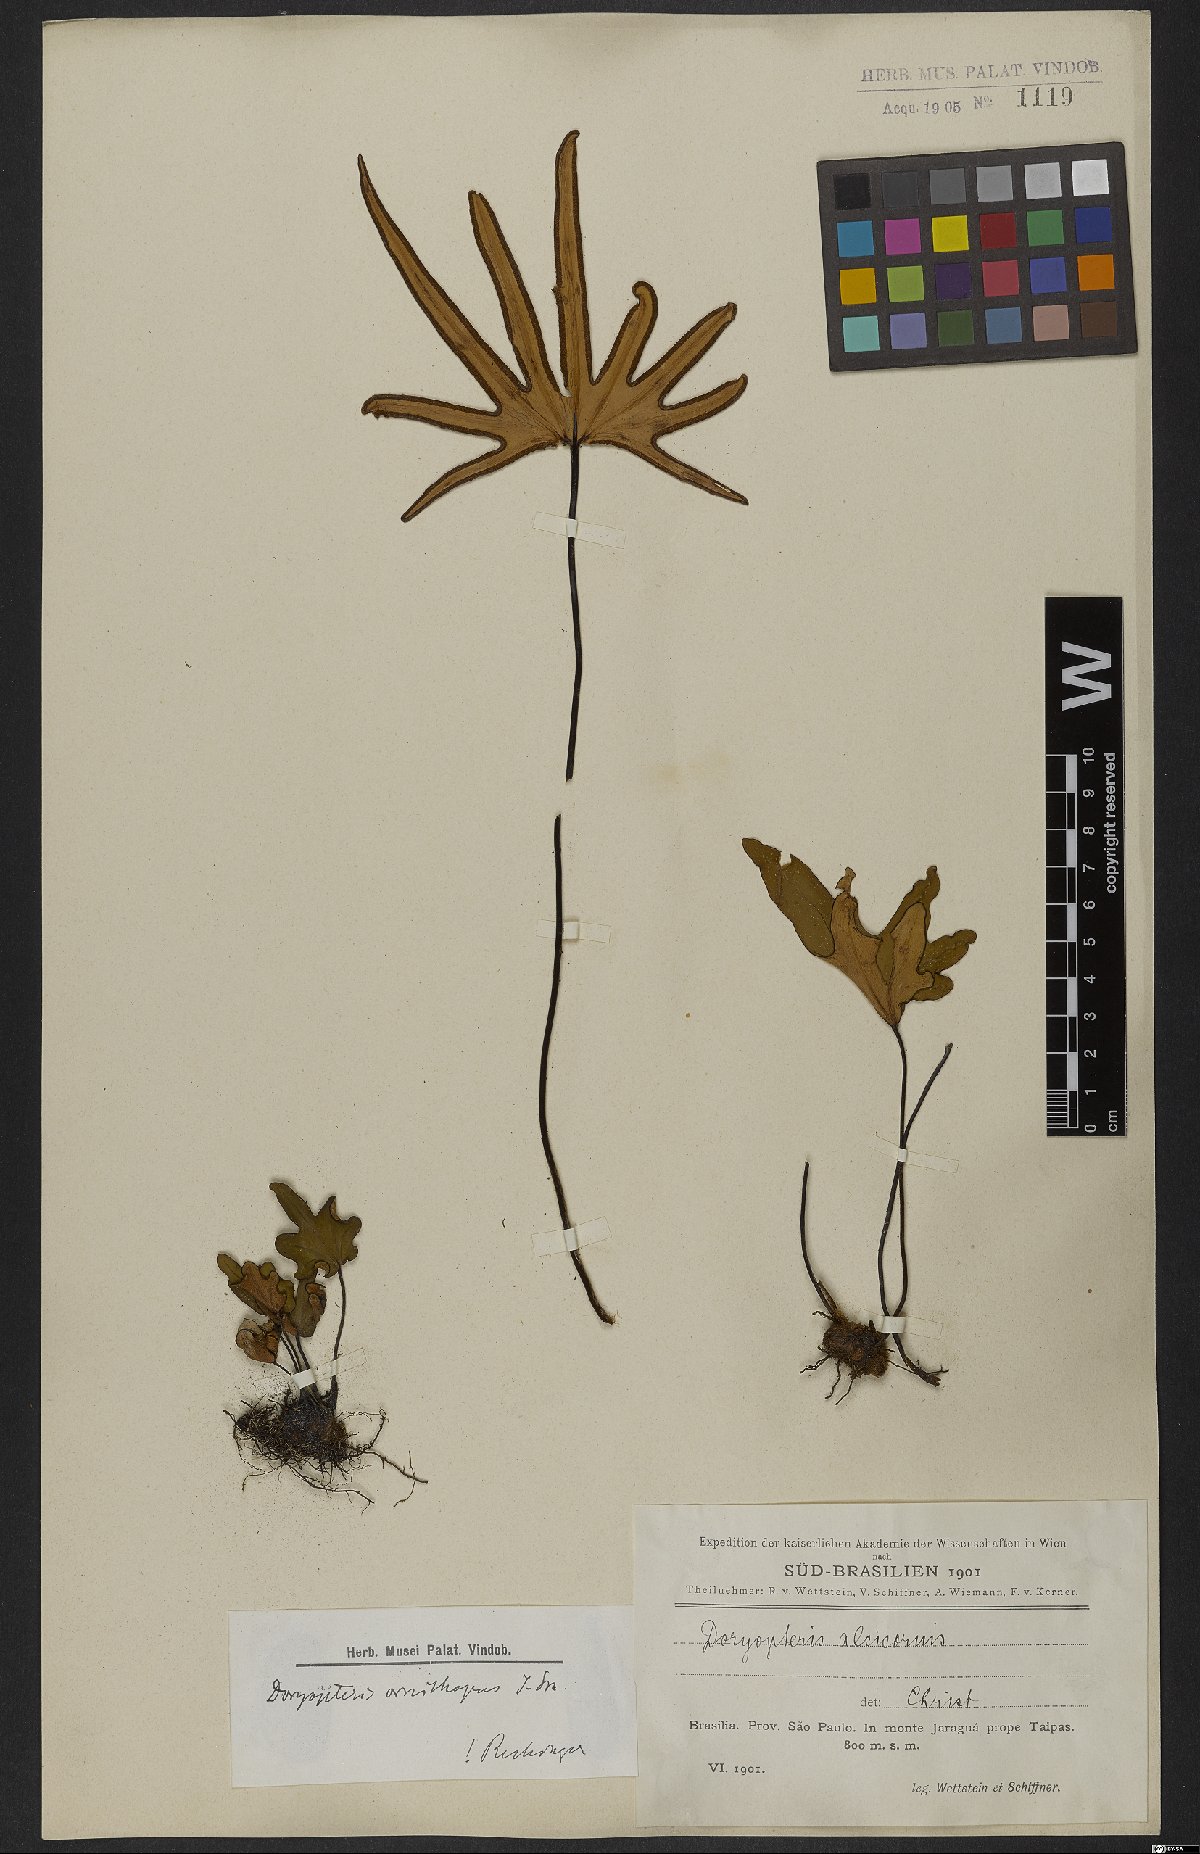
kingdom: Plantae
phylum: Tracheophyta
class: Polypodiopsida
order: Polypodiales
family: Pteridaceae
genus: Lytoneuron
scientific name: Lytoneuron ornithopus
